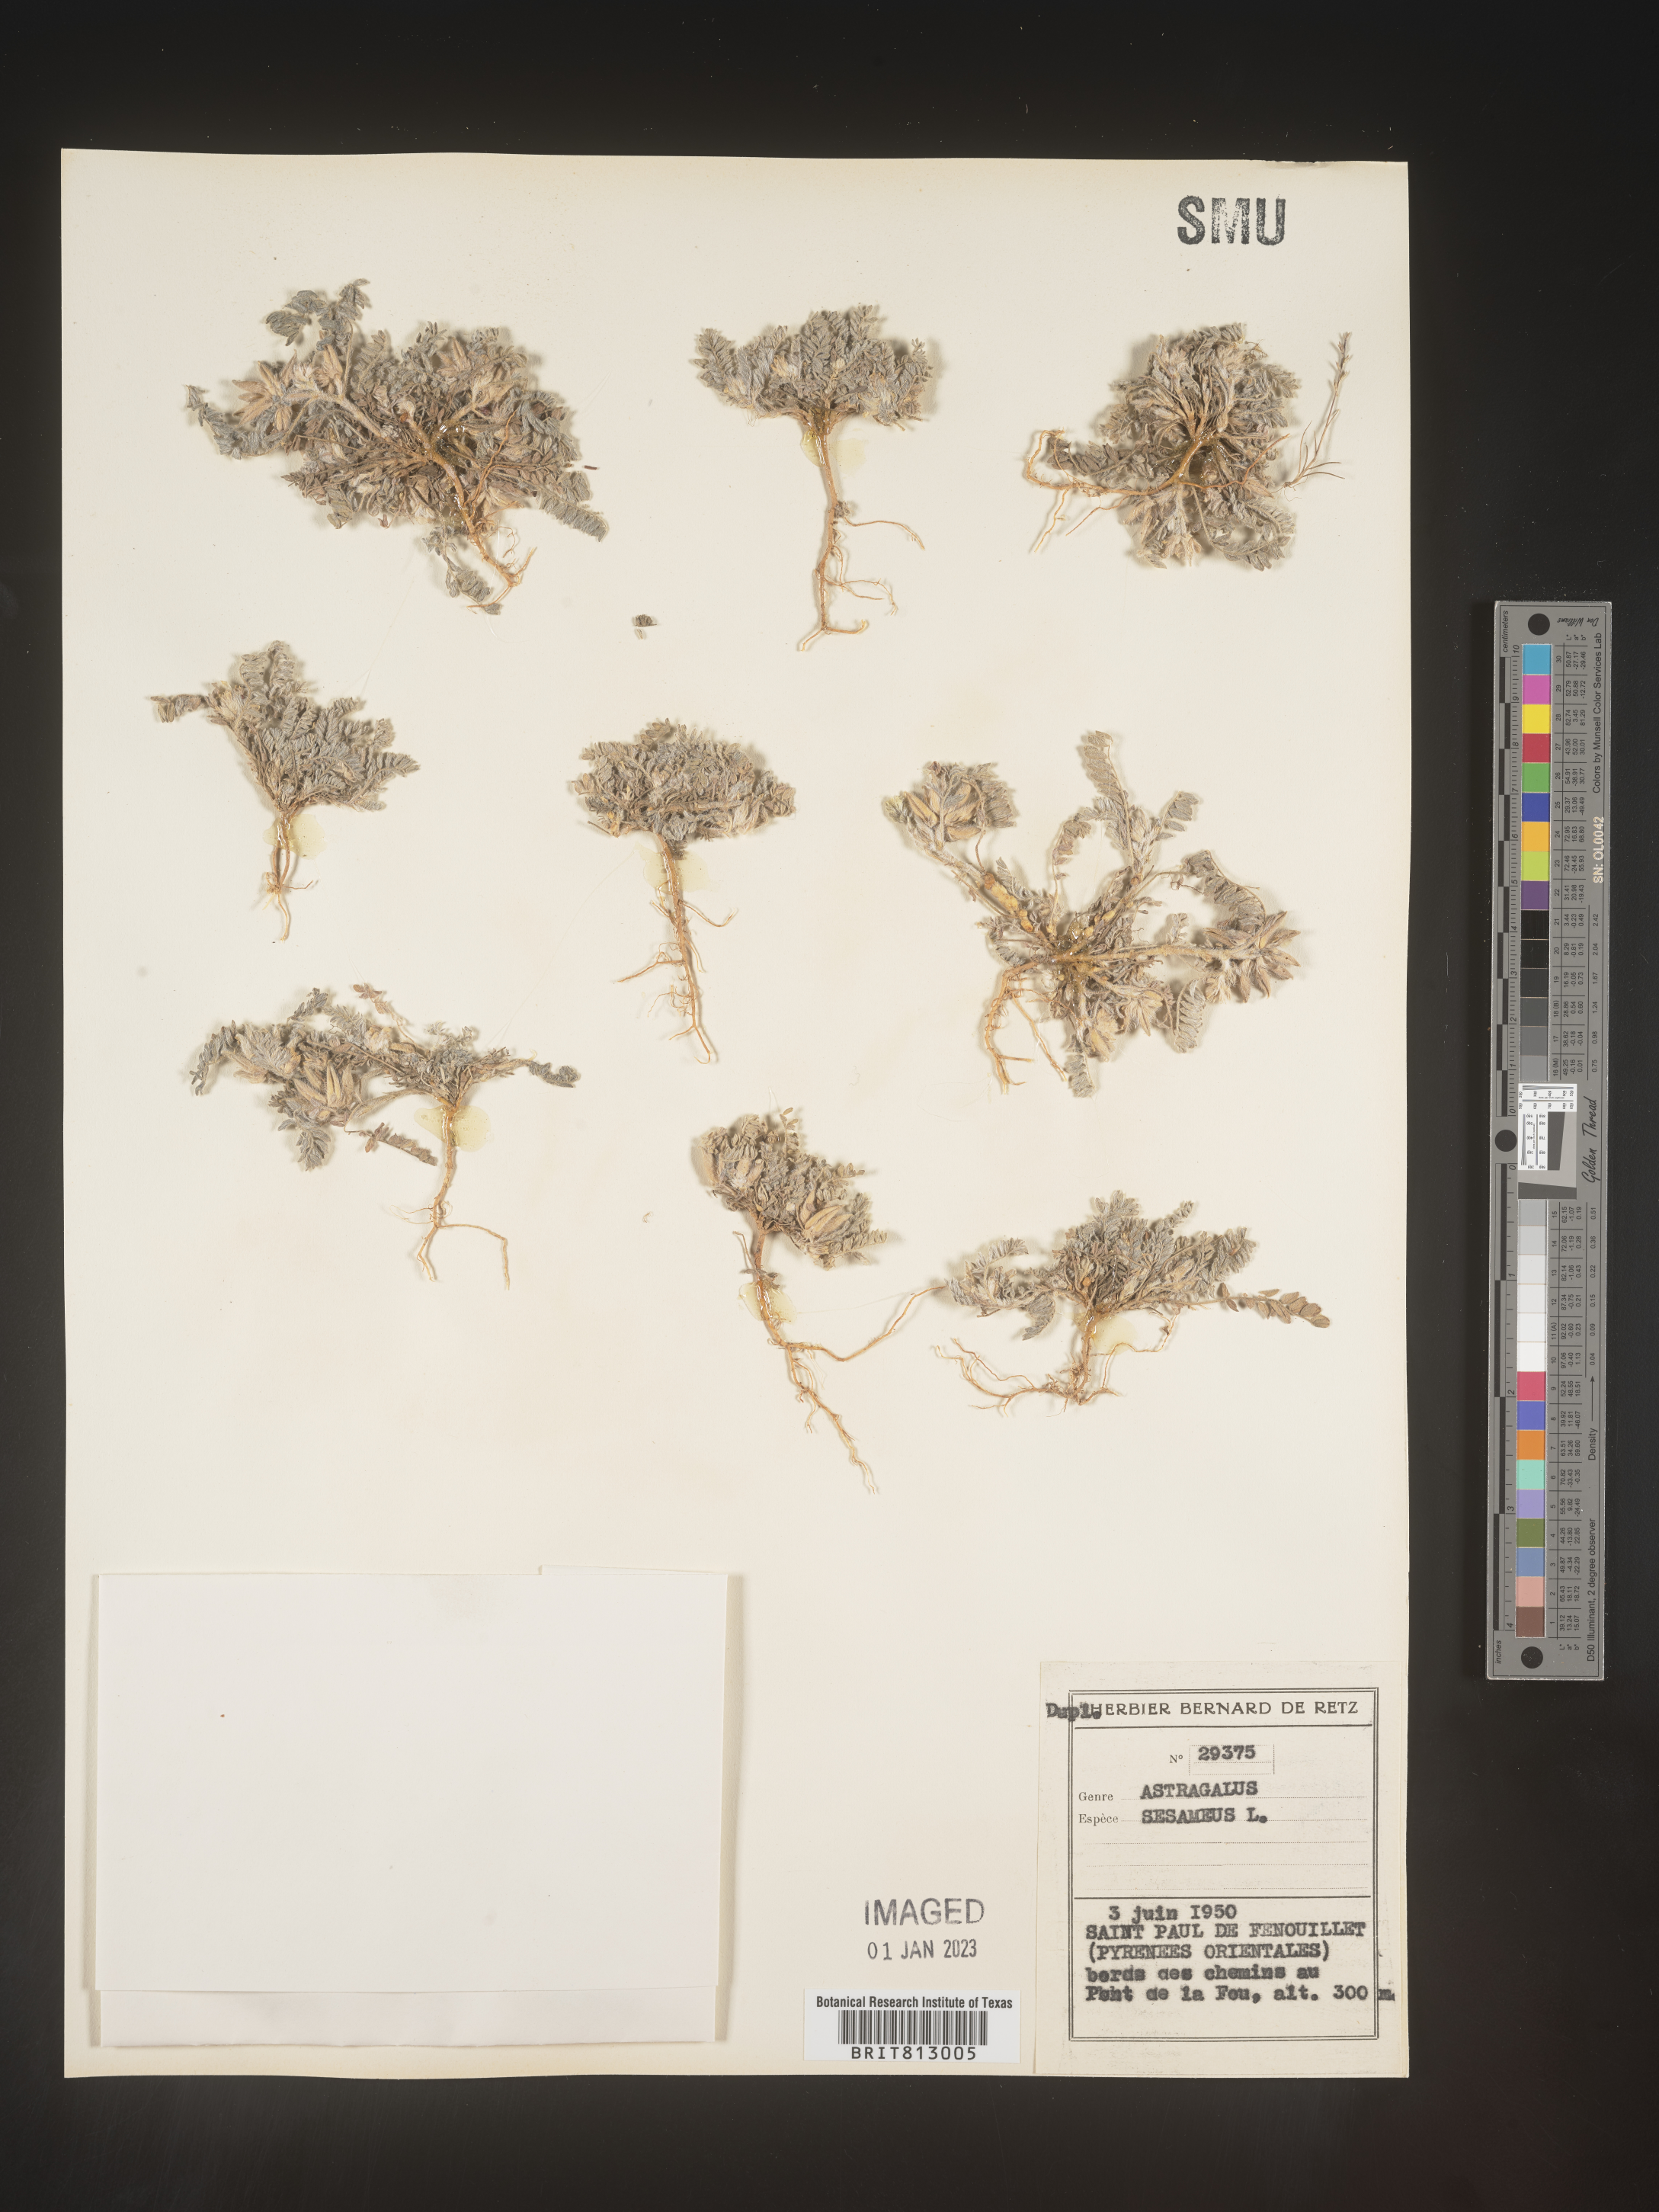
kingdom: Plantae
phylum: Tracheophyta
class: Magnoliopsida
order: Fabales
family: Fabaceae
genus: Astragalus
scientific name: Astragalus
